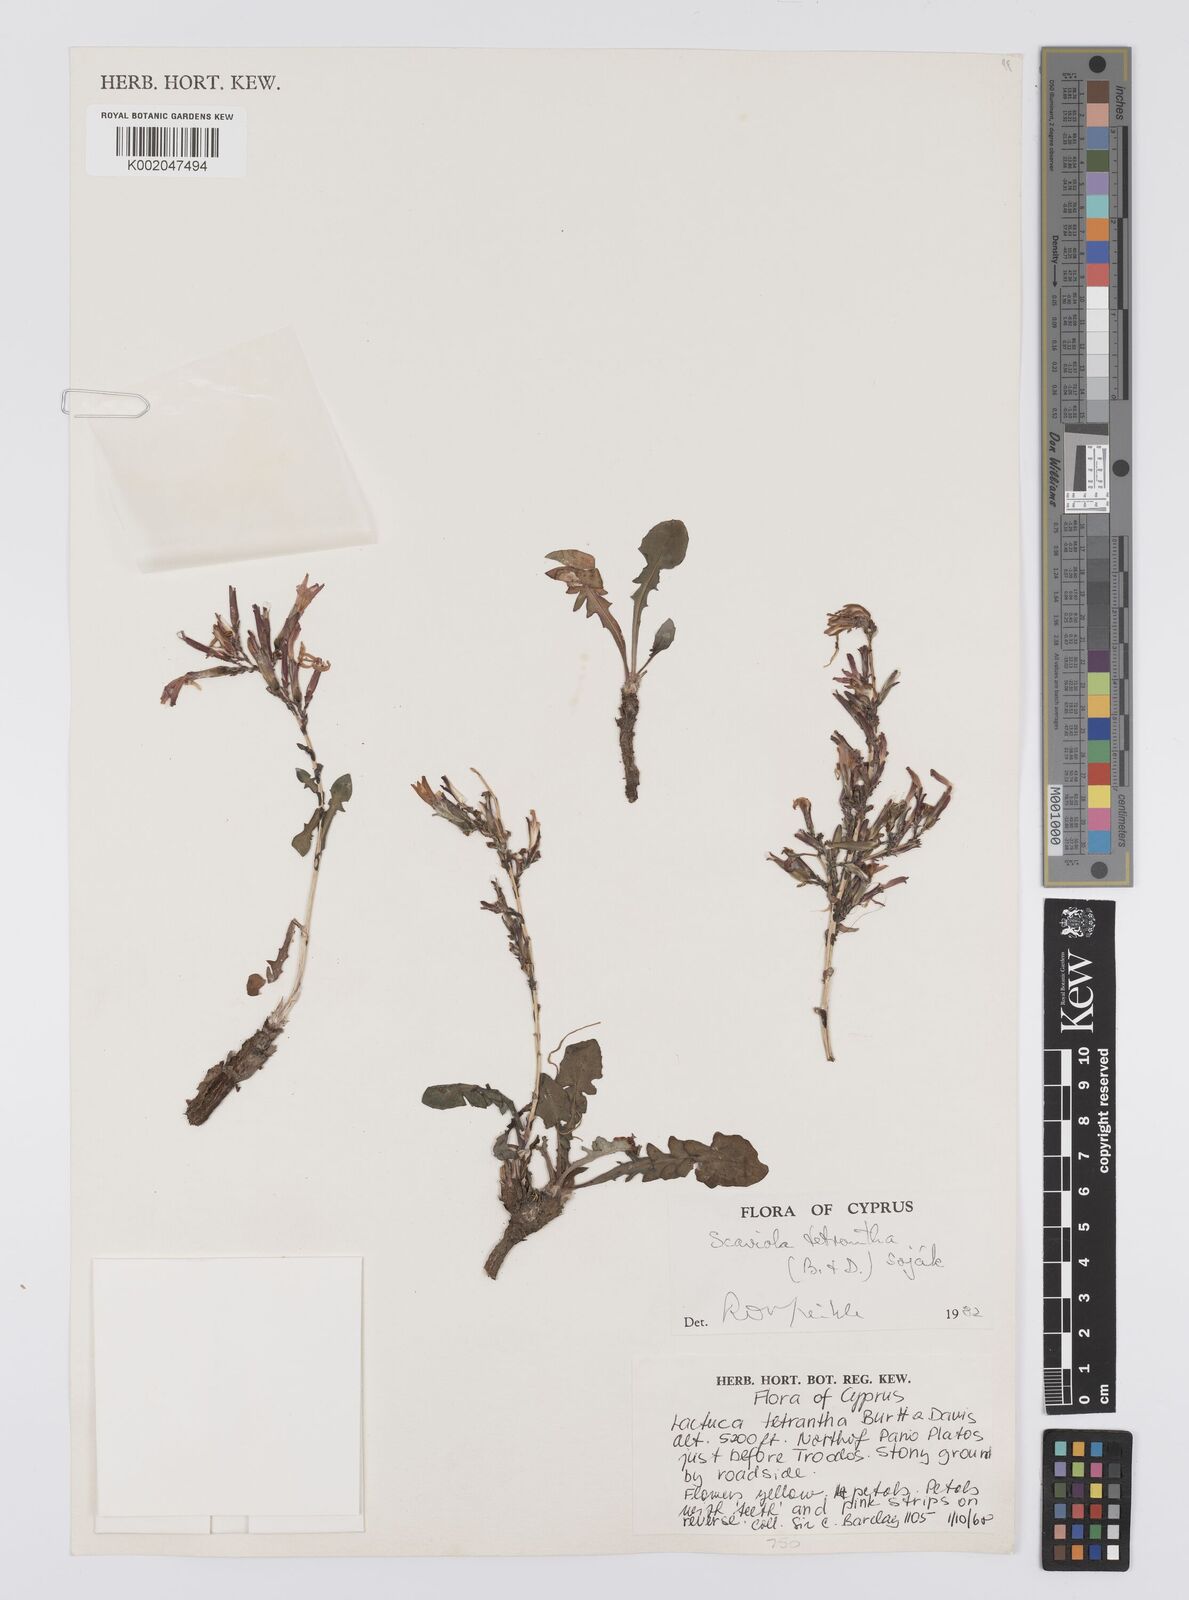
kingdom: Plantae
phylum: Tracheophyta
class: Magnoliopsida
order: Asterales
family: Asteraceae
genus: Lactuca
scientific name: Lactuca tetrantha
